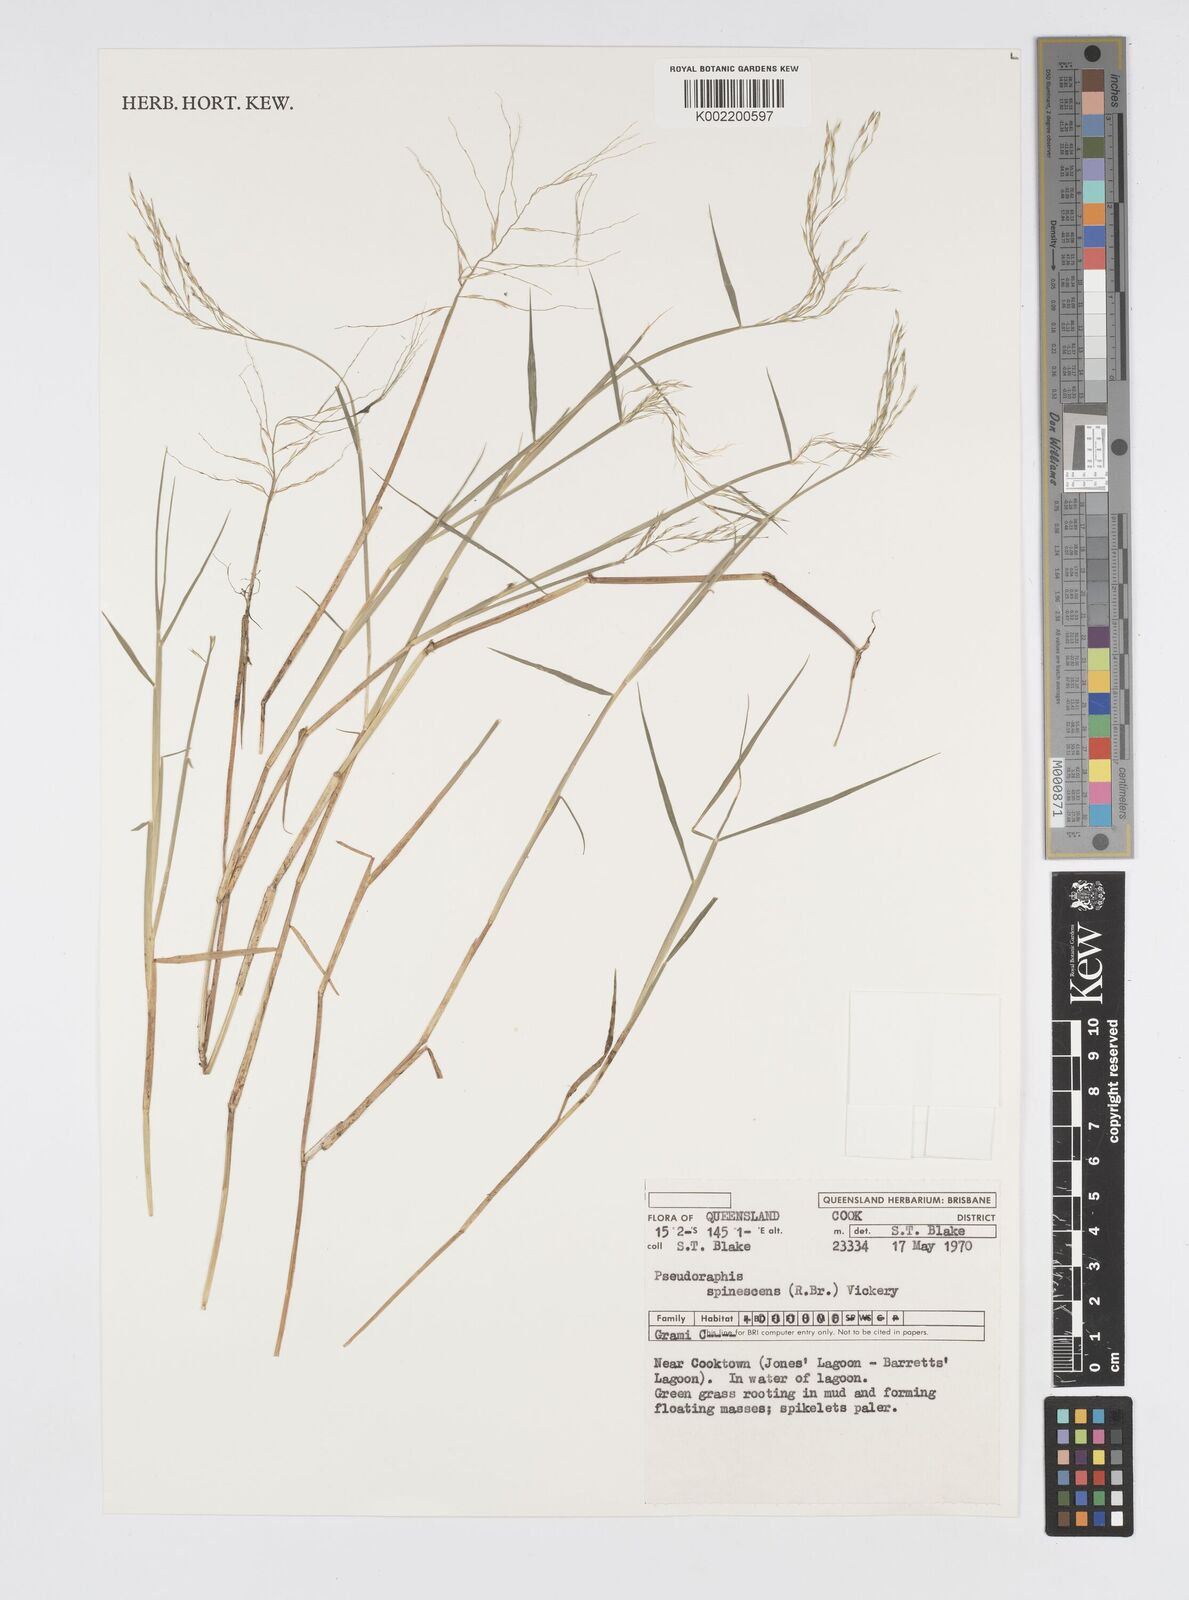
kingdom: Plantae
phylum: Tracheophyta
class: Liliopsida
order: Poales
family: Poaceae
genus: Pseudoraphis
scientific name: Pseudoraphis spinescens
